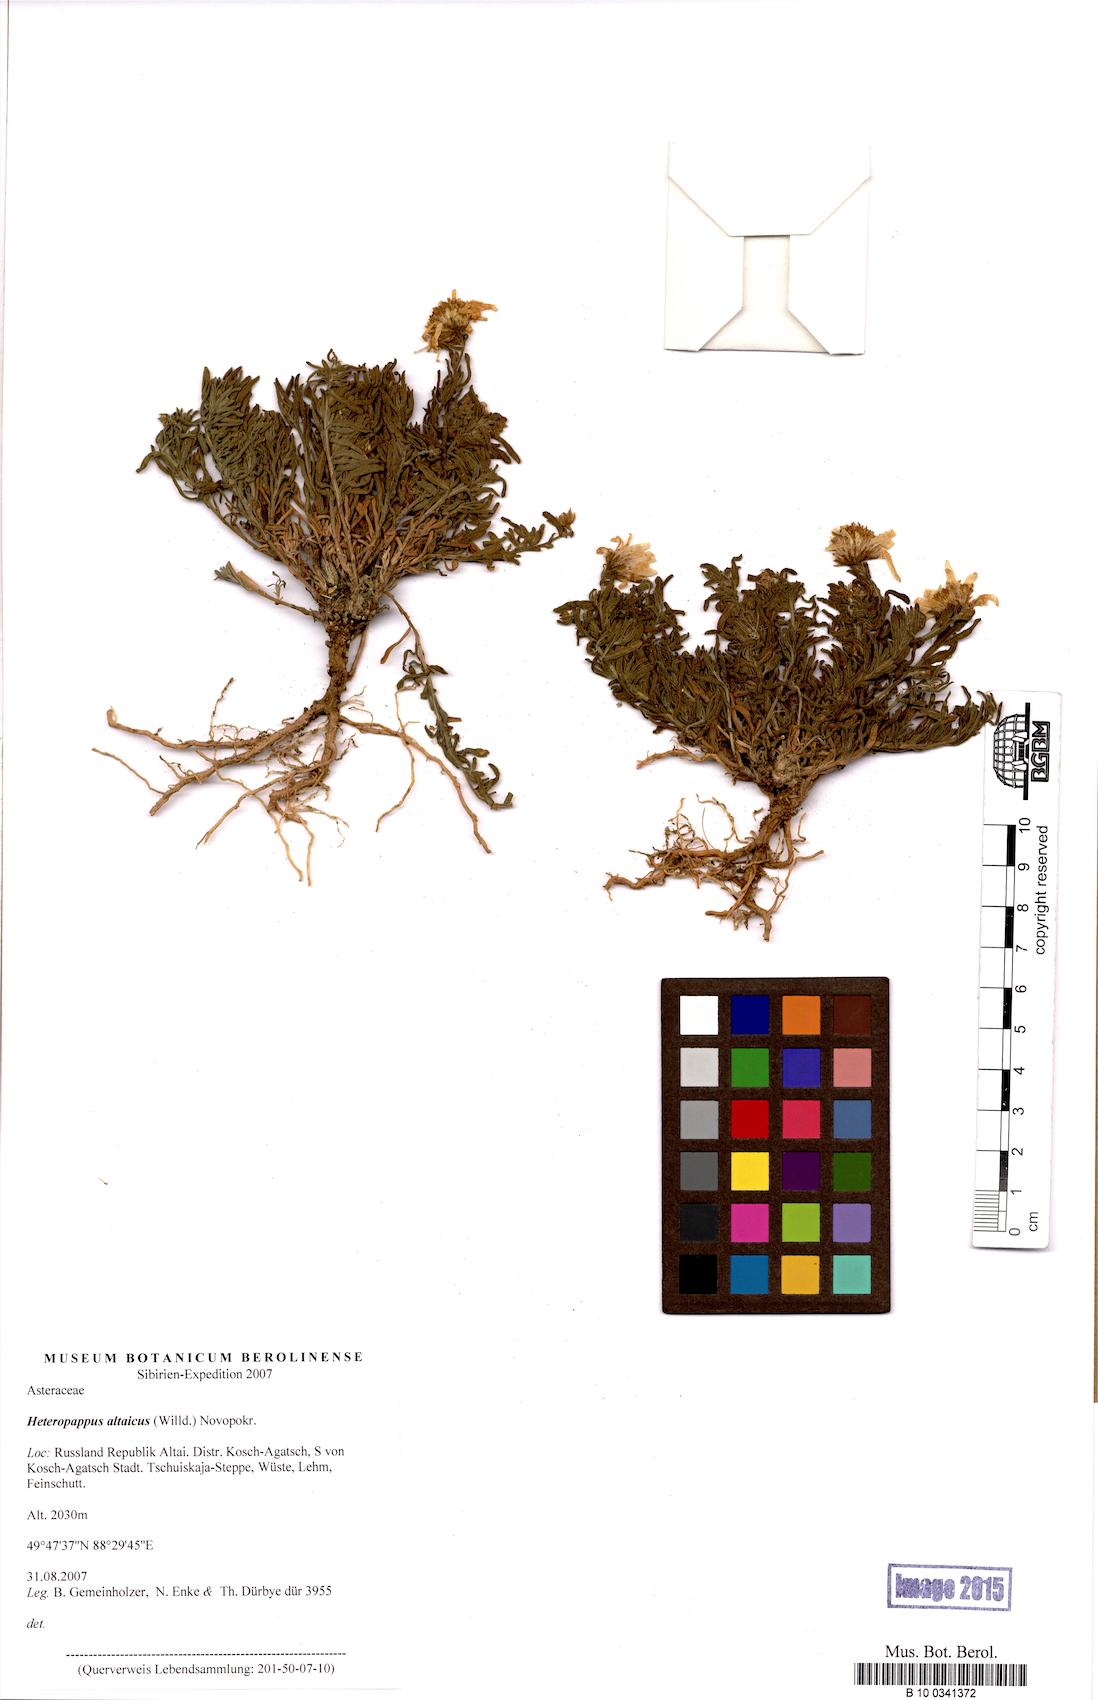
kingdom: Plantae
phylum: Tracheophyta
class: Magnoliopsida
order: Asterales
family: Asteraceae
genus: Heteropappus
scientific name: Heteropappus altaicus
